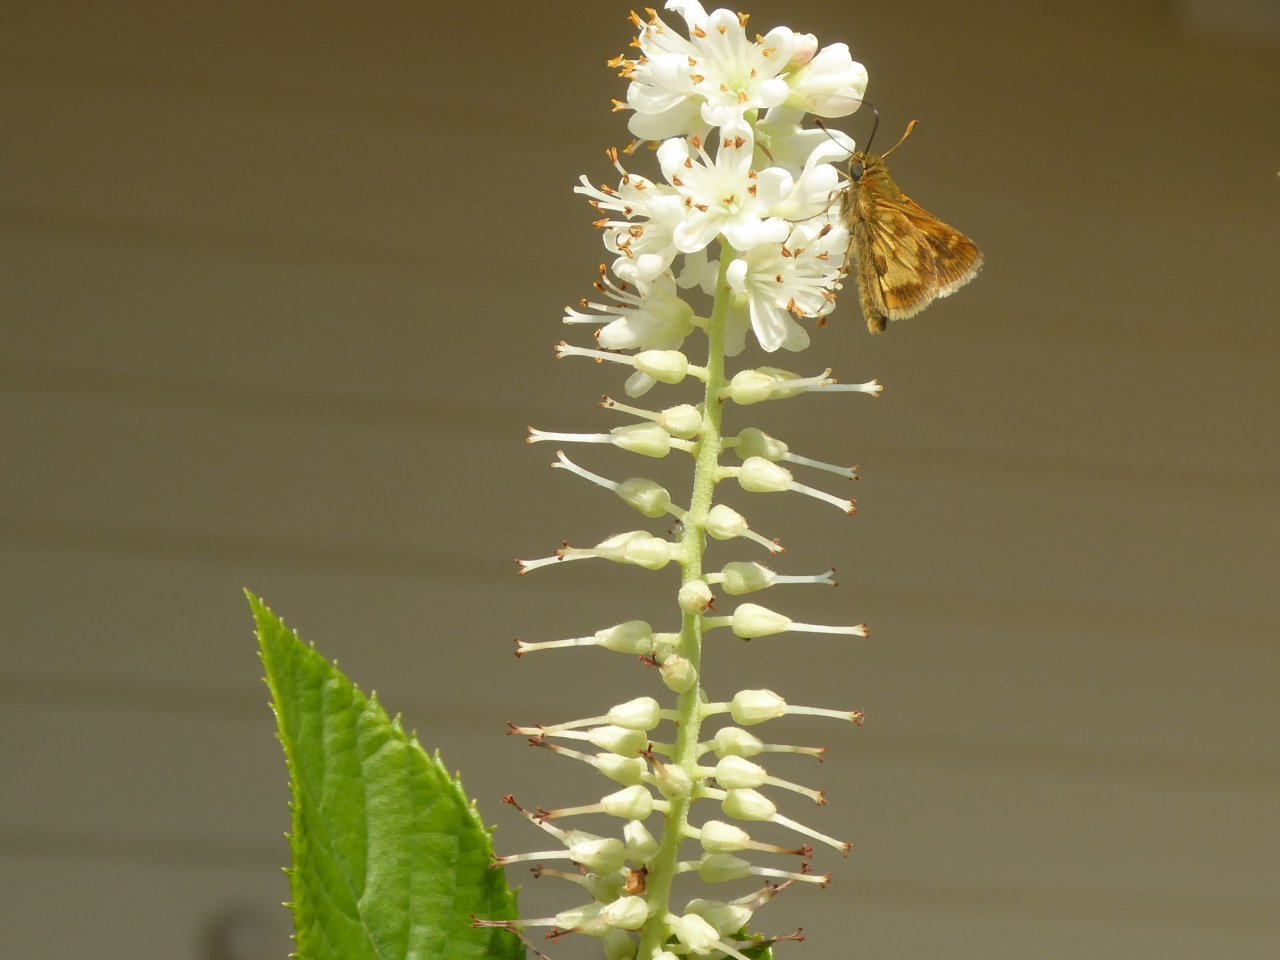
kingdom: Animalia
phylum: Arthropoda
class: Insecta
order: Lepidoptera
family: Hesperiidae
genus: Polites
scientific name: Polites coras
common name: Peck's Skipper
